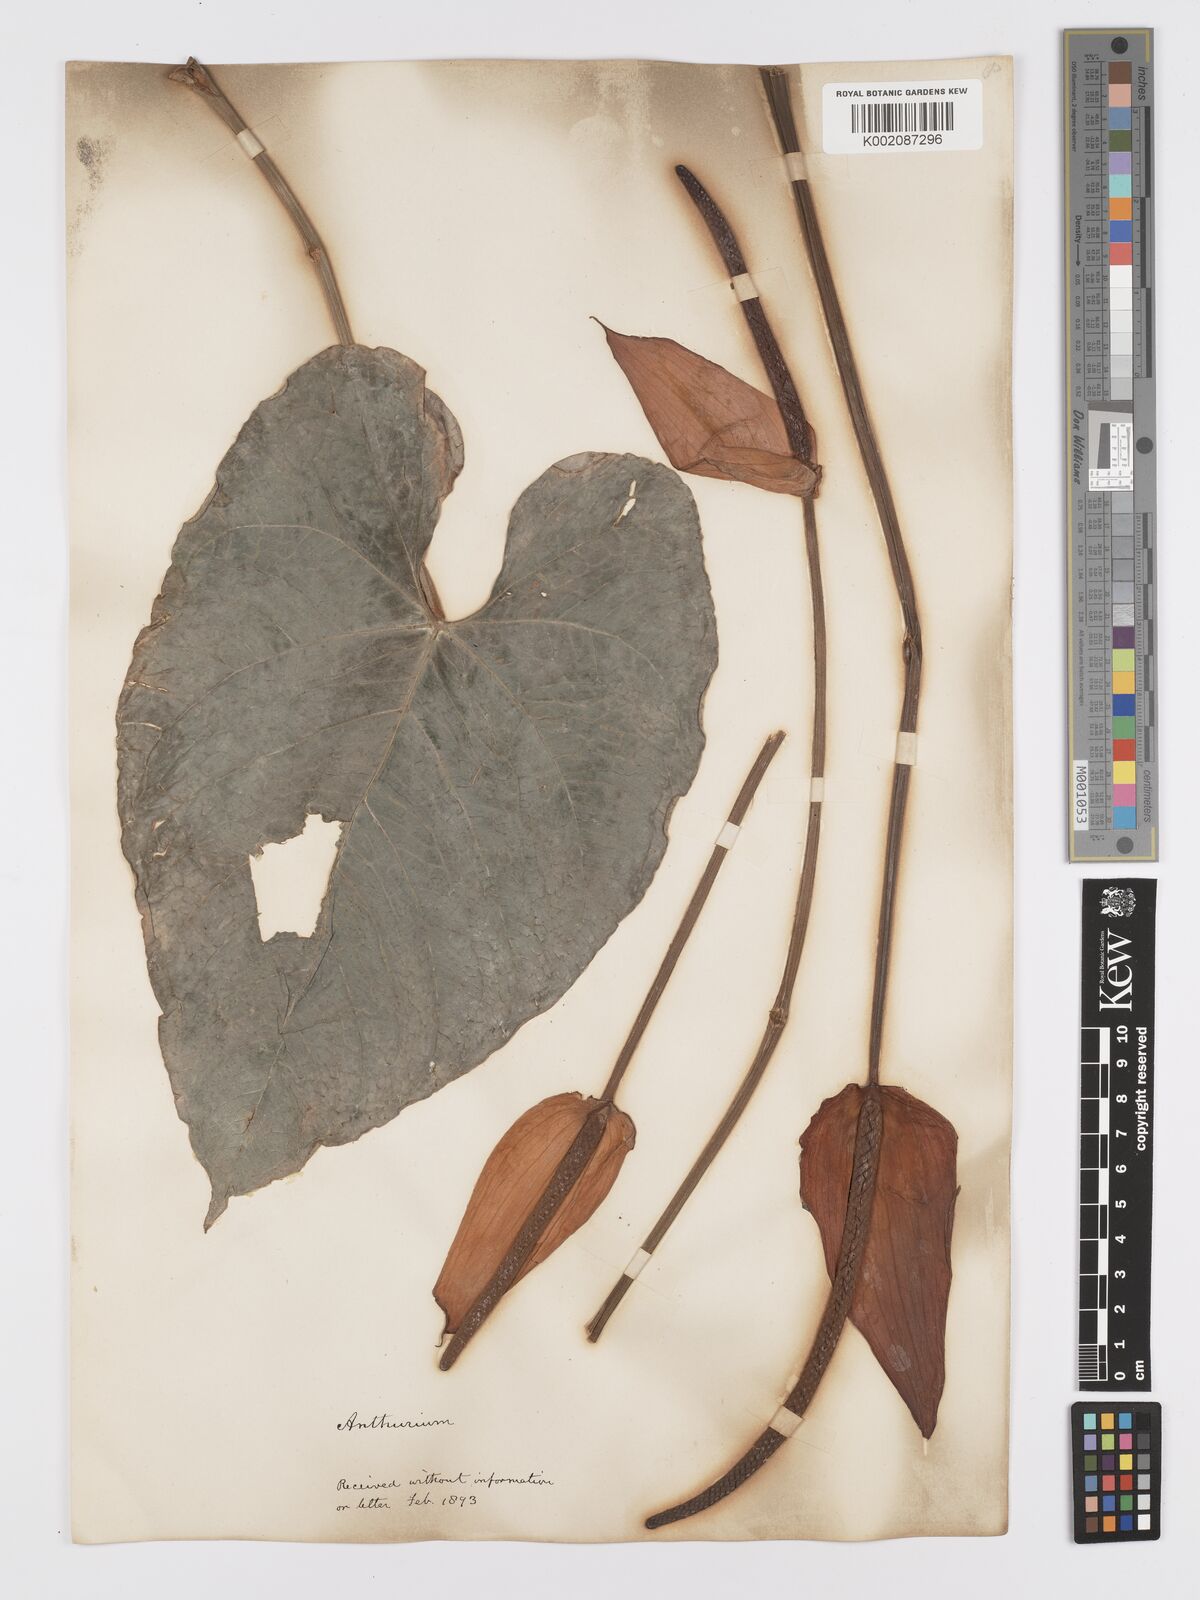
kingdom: Plantae
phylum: Tracheophyta
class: Liliopsida
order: Alismatales
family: Araceae
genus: Anthurium
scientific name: Anthurium
